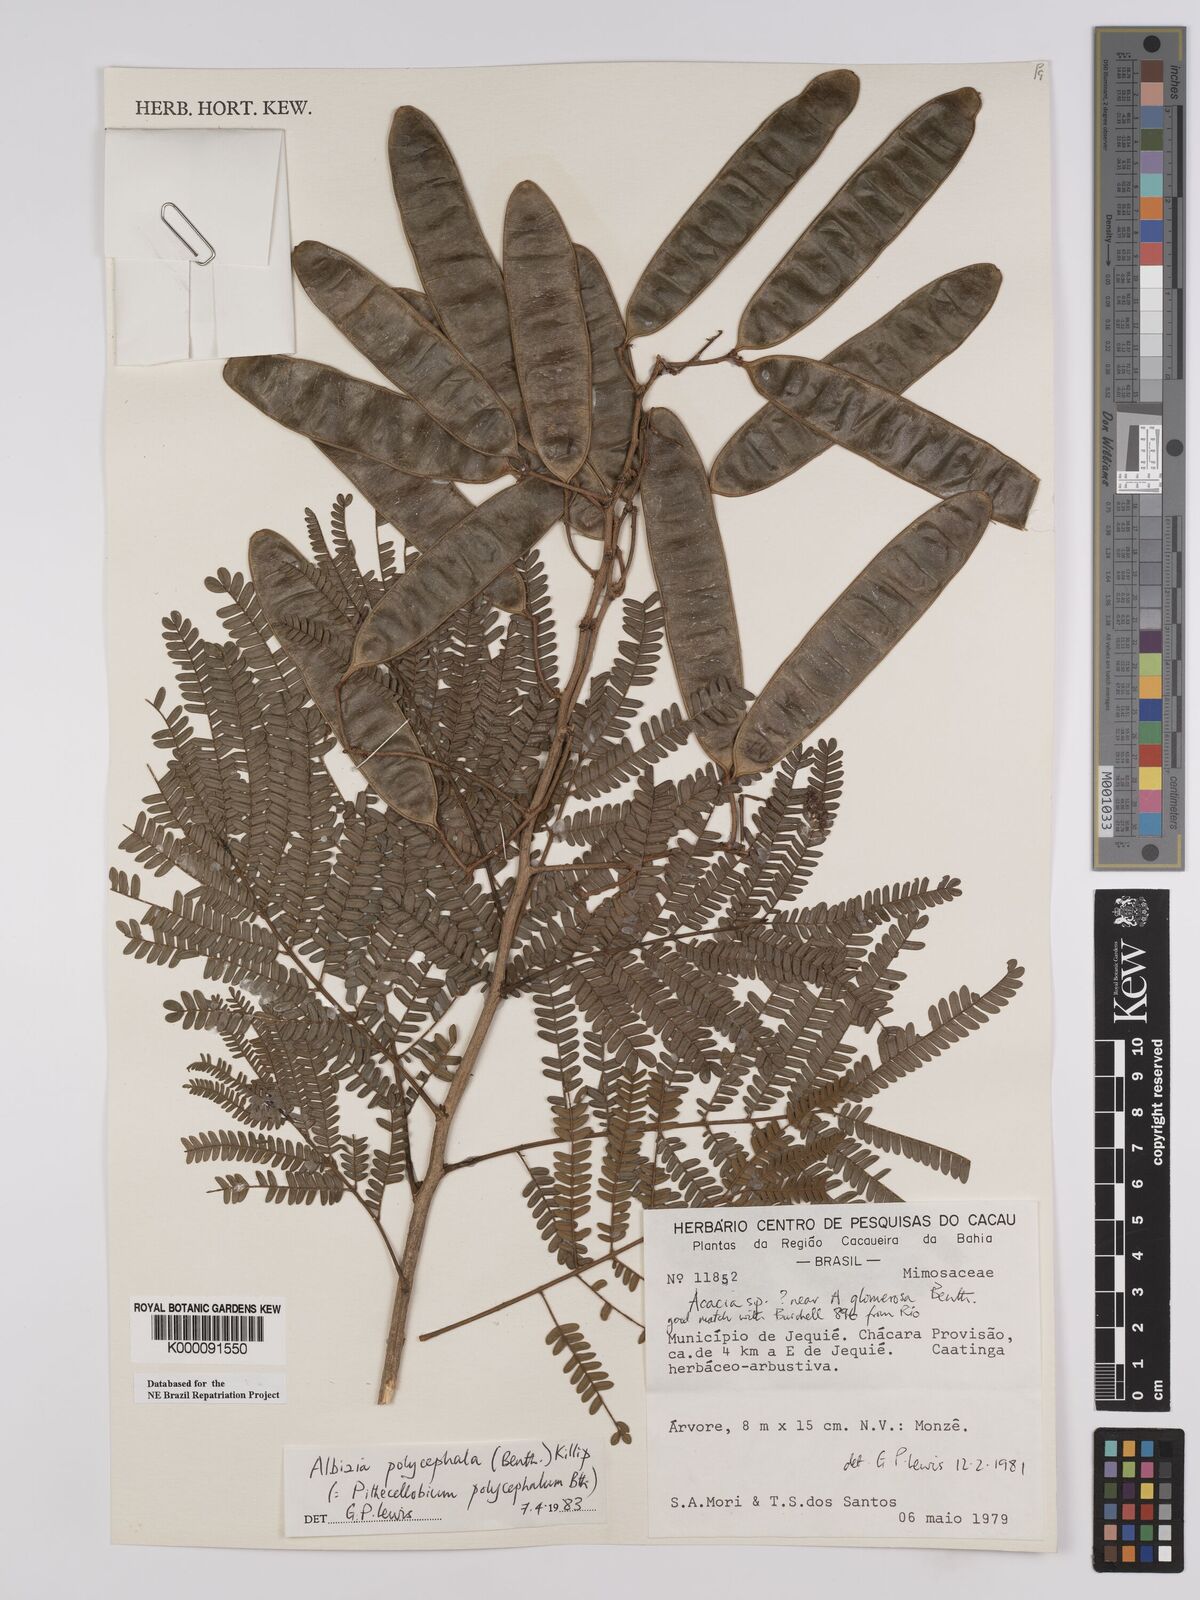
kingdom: Plantae
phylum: Tracheophyta
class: Magnoliopsida
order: Fabales
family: Fabaceae
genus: Albizia
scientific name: Albizia polycephala
